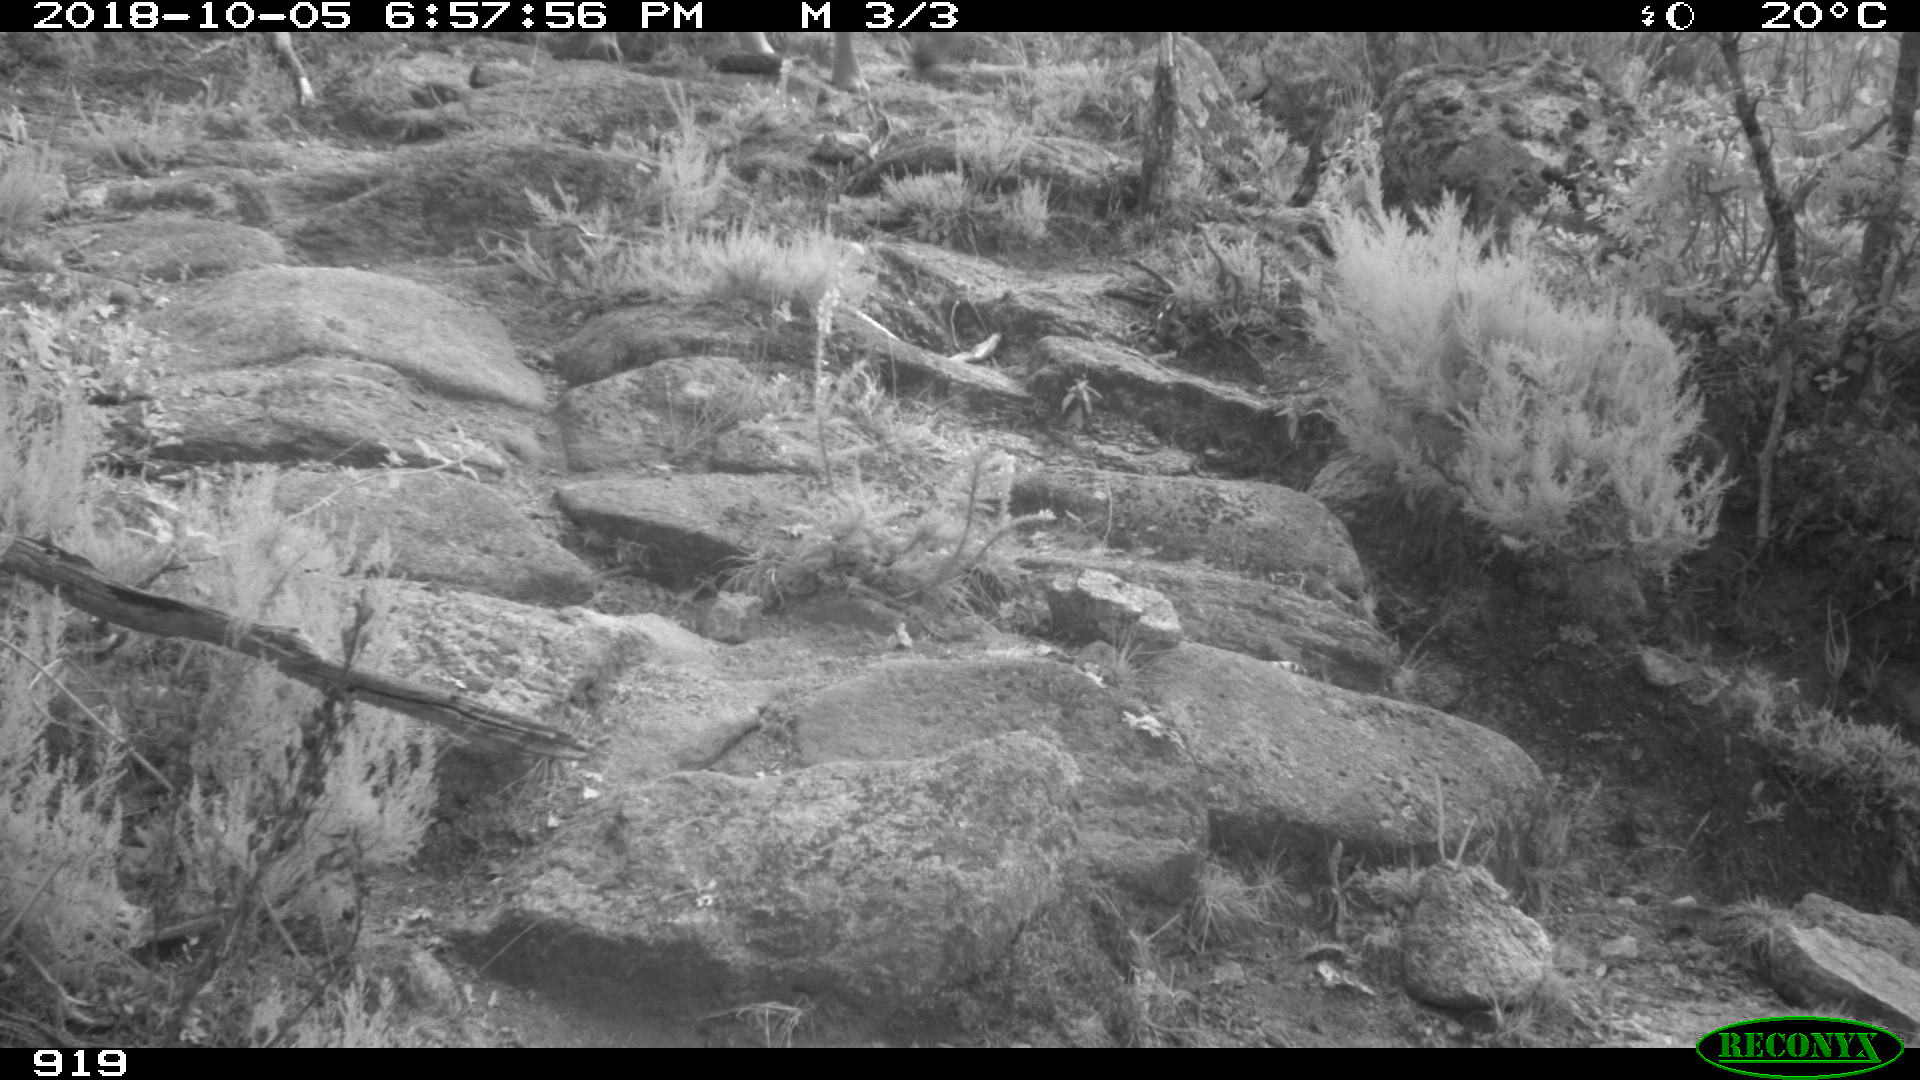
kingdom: Animalia
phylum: Chordata
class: Mammalia
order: Artiodactyla
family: Bovidae
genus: Bos
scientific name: Bos taurus
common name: Domesticated cattle
